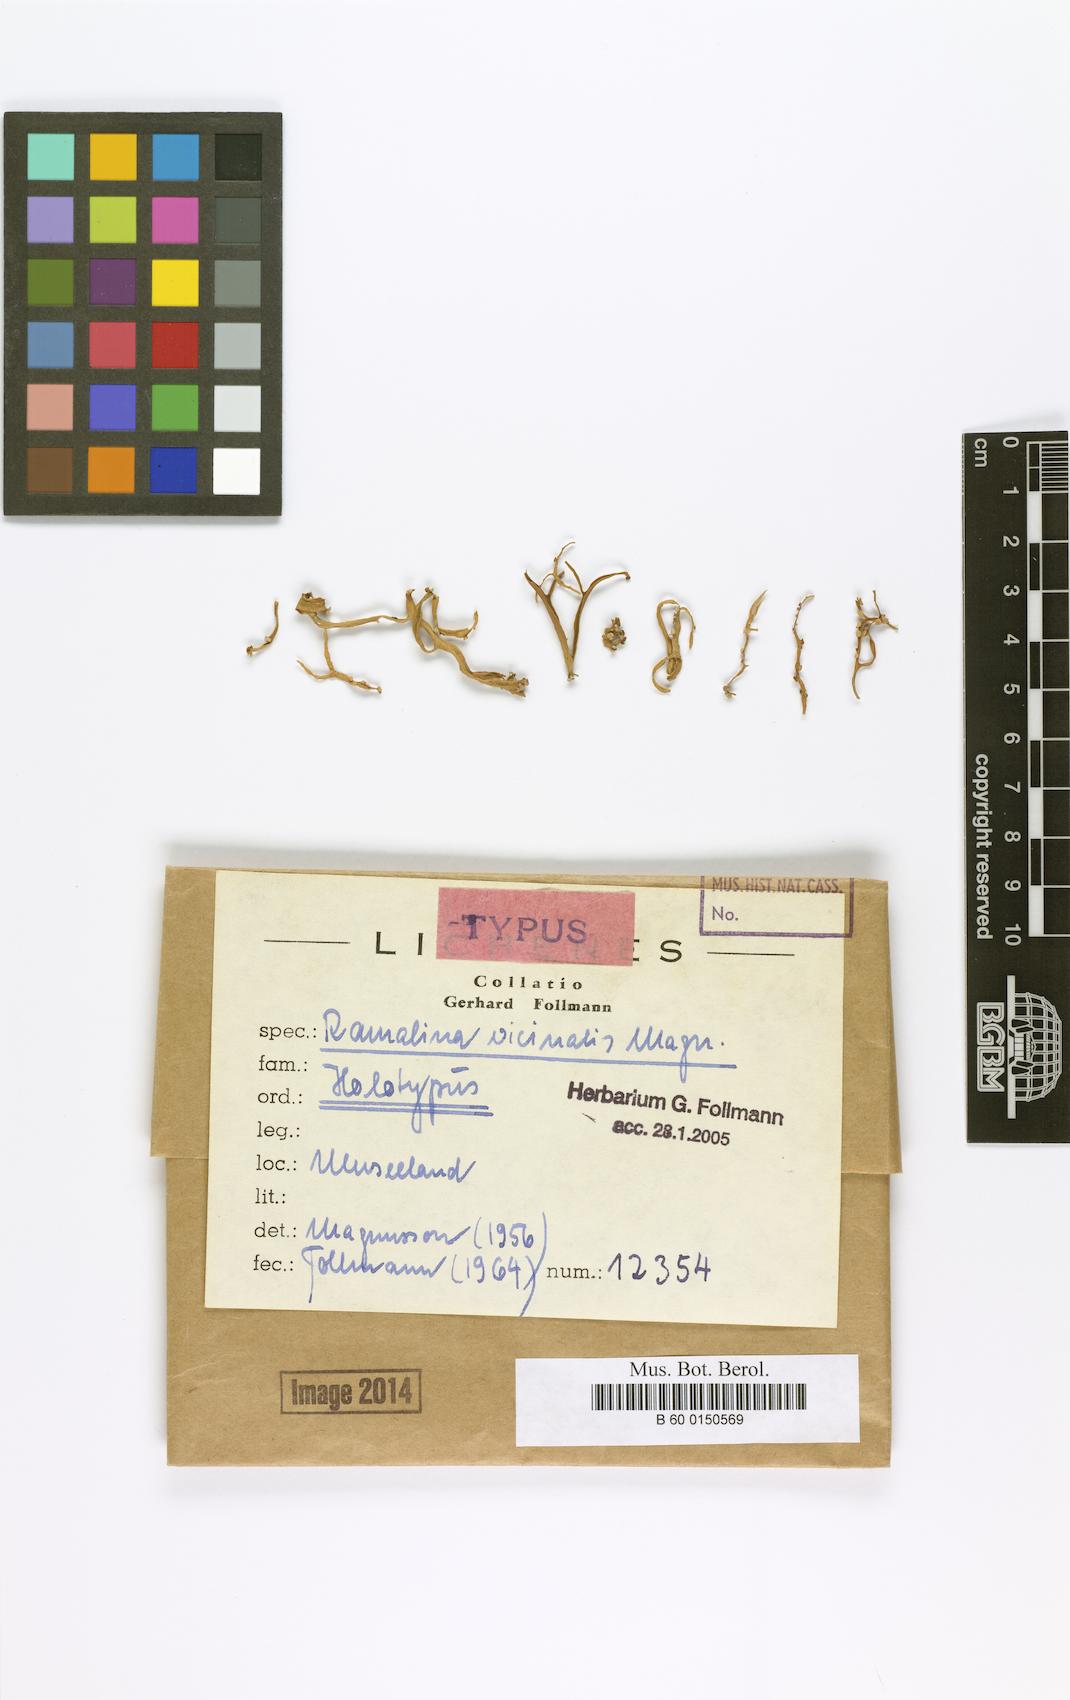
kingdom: Fungi
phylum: Ascomycota
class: Lecanoromycetes
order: Lecanorales
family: Ramalinaceae
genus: Ramalina
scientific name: Ramalina
